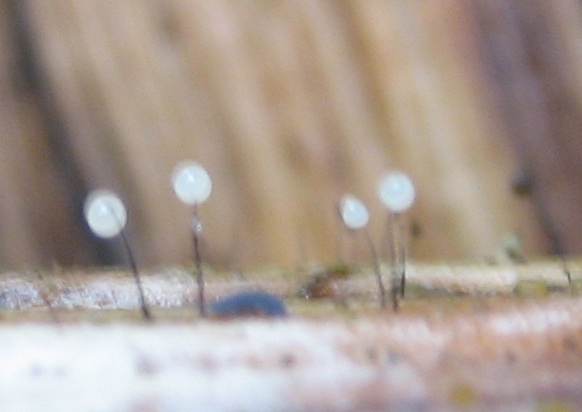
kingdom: Protozoa
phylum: Mycetozoa
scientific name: Mycetozoa
